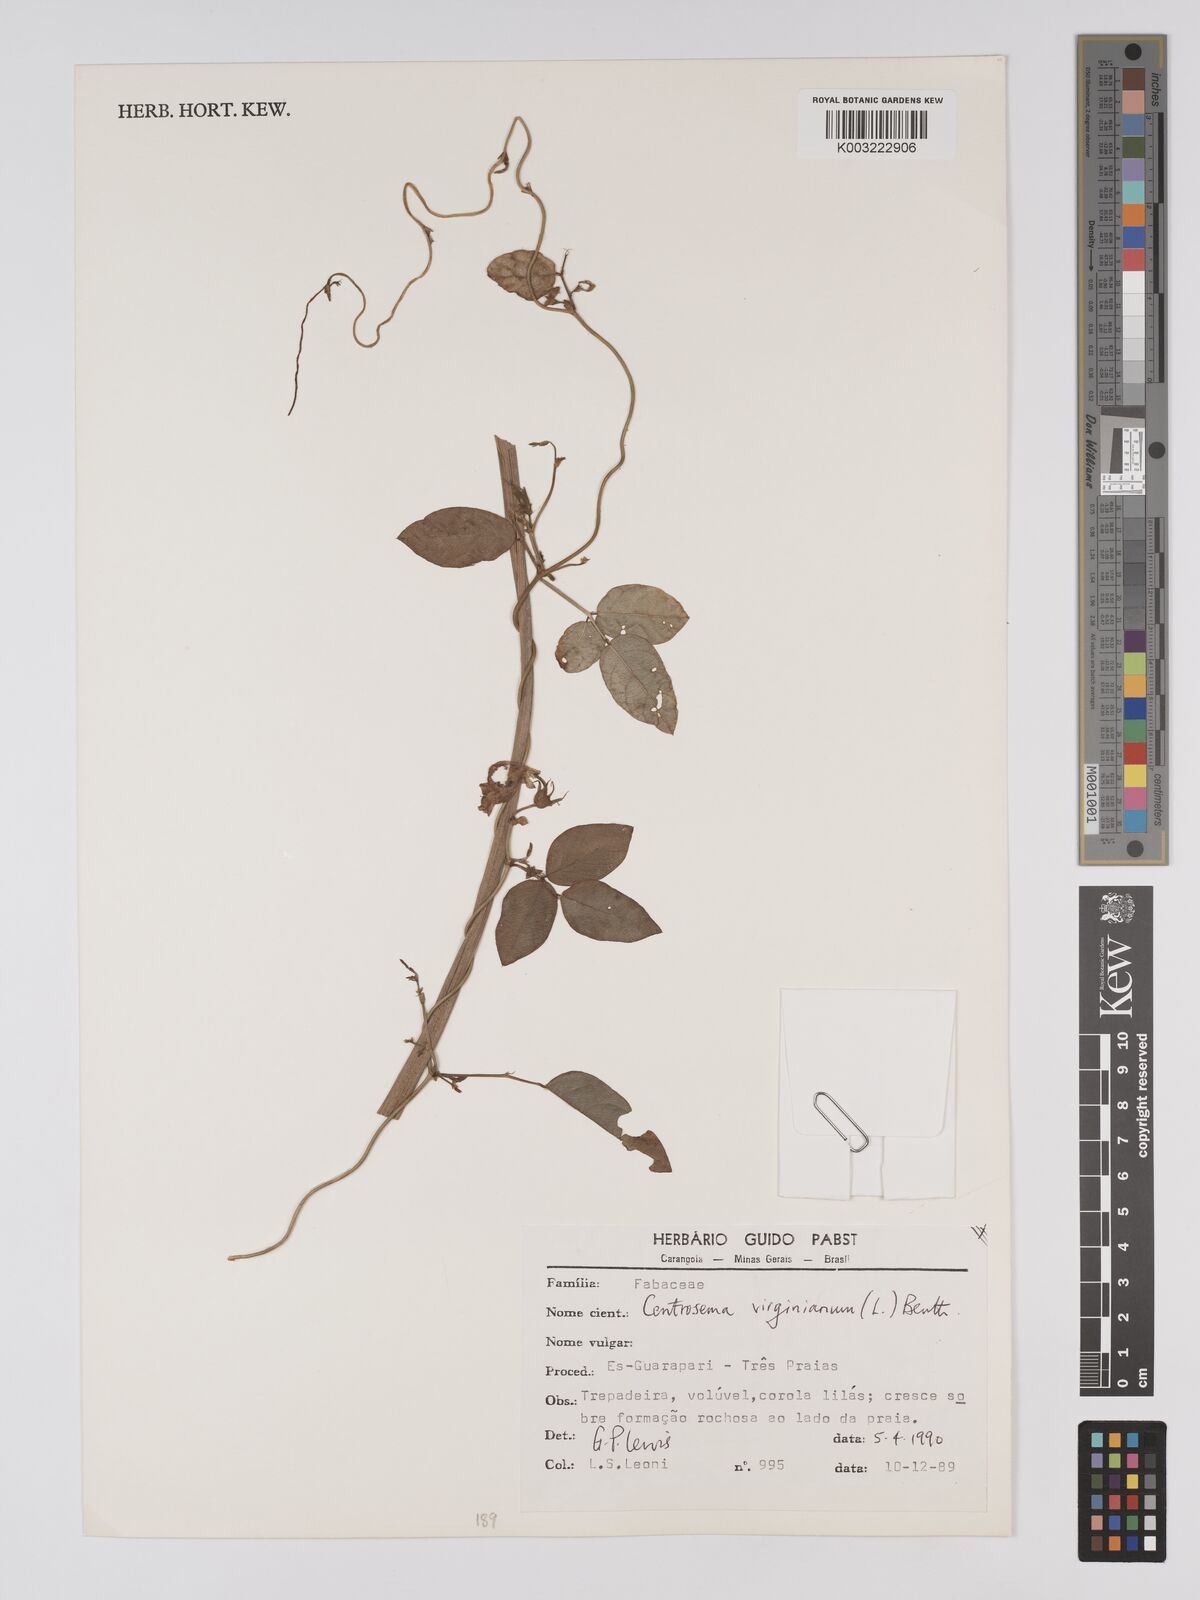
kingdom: Plantae
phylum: Tracheophyta
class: Magnoliopsida
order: Fabales
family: Fabaceae
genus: Centrosema
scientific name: Centrosema virginianum
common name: Butterfly-pea
